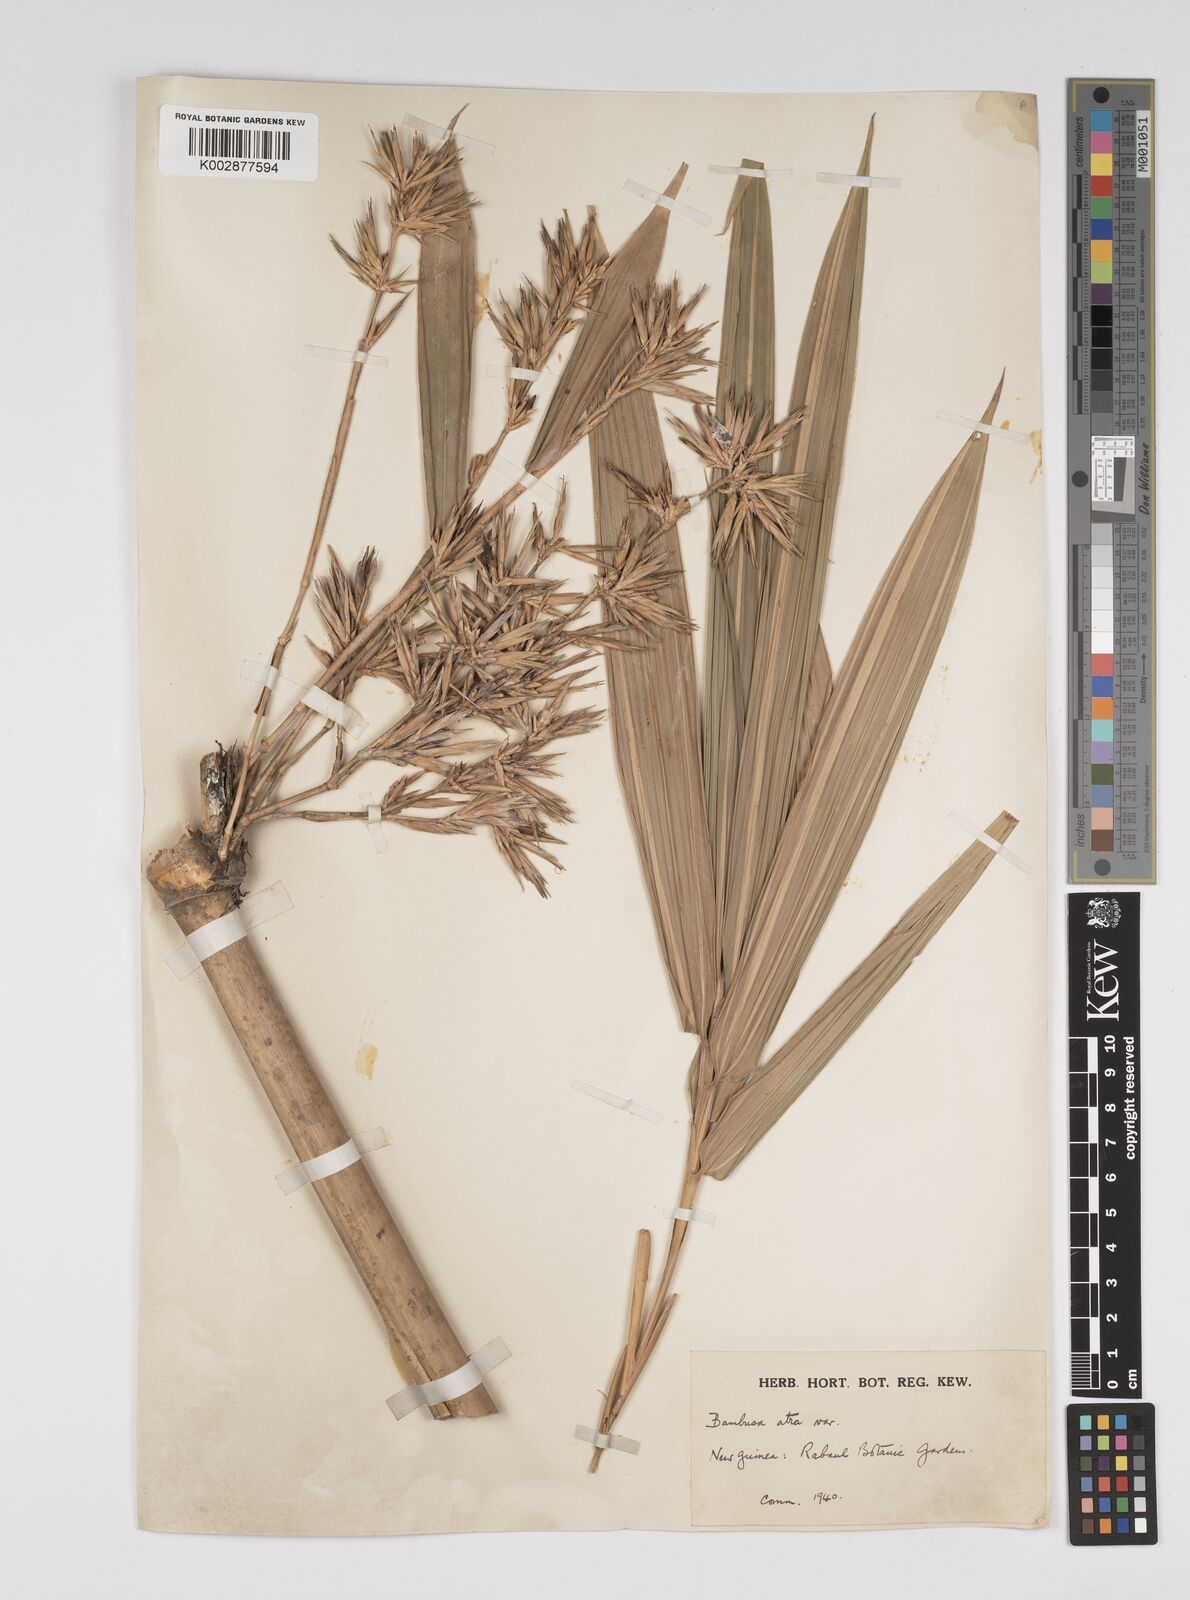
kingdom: Plantae
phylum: Tracheophyta
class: Liliopsida
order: Poales
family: Poaceae
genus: Bambusa
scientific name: Bambusa macrolemma
